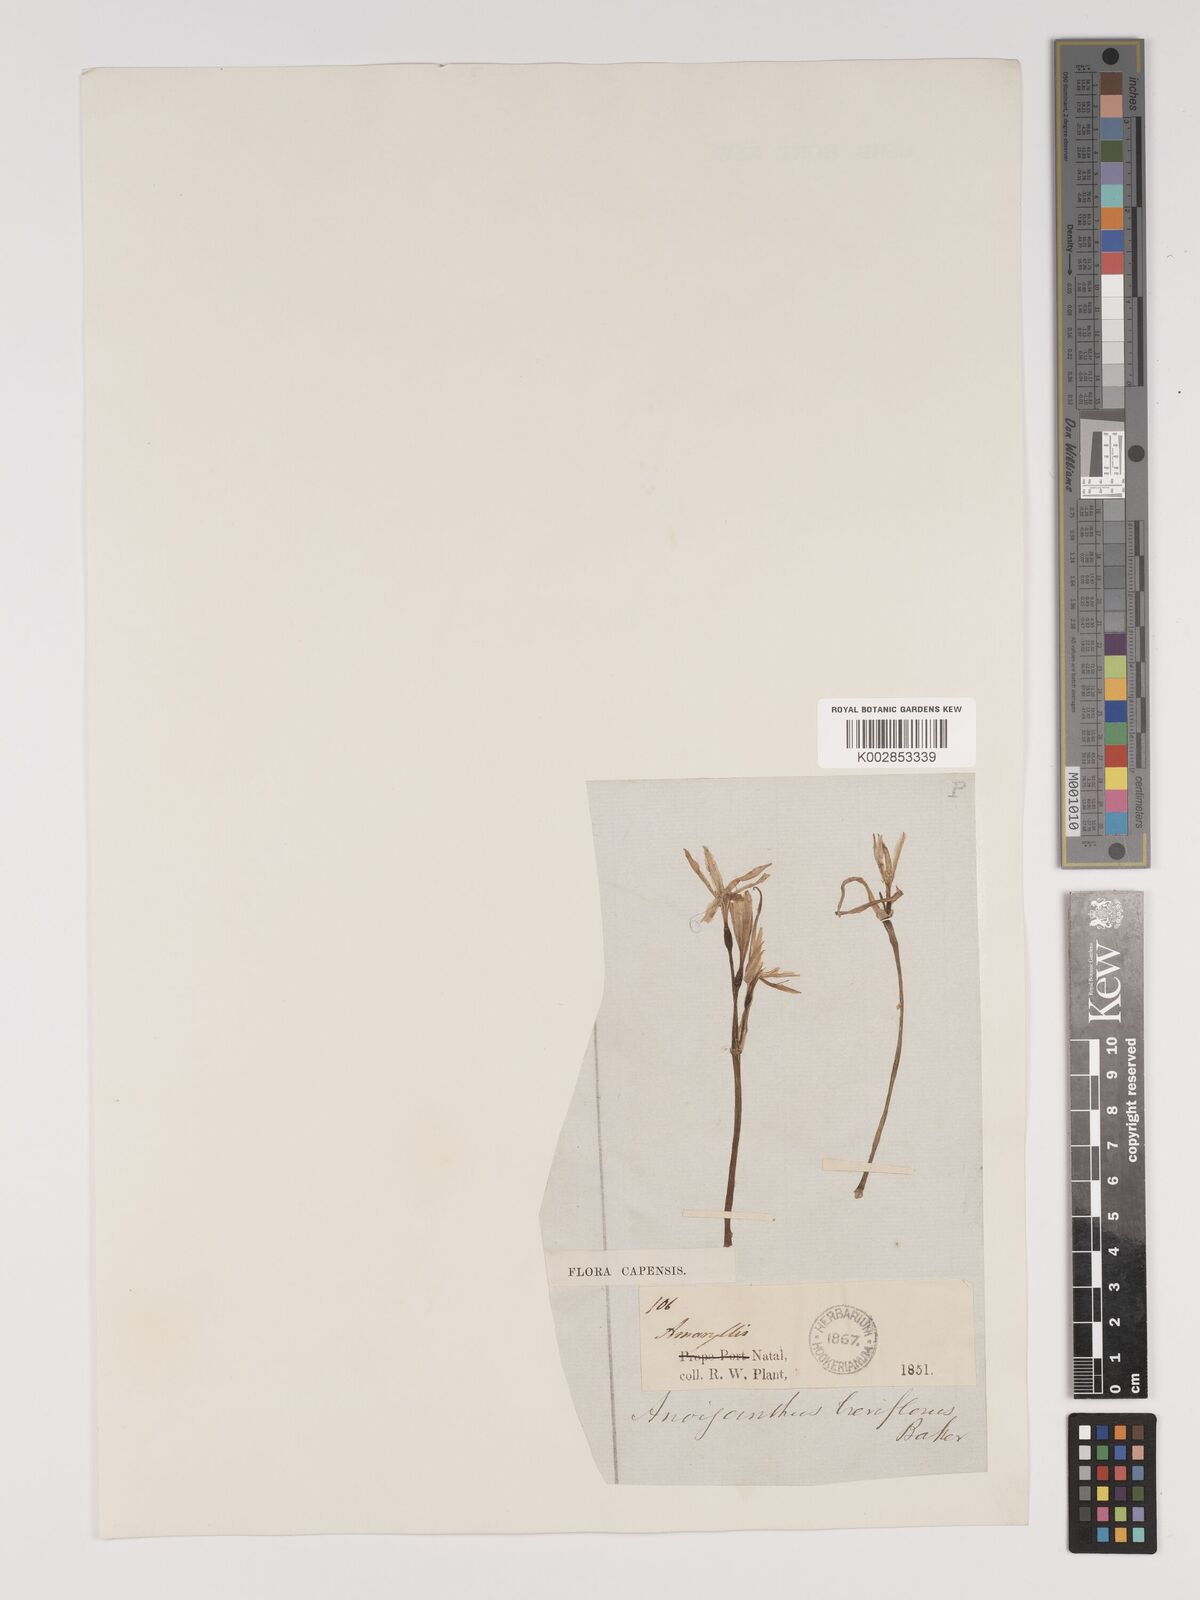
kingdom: Plantae
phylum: Tracheophyta
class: Liliopsida
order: Asparagales
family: Amaryllidaceae
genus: Cyrtanthus
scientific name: Cyrtanthus breviflorus
